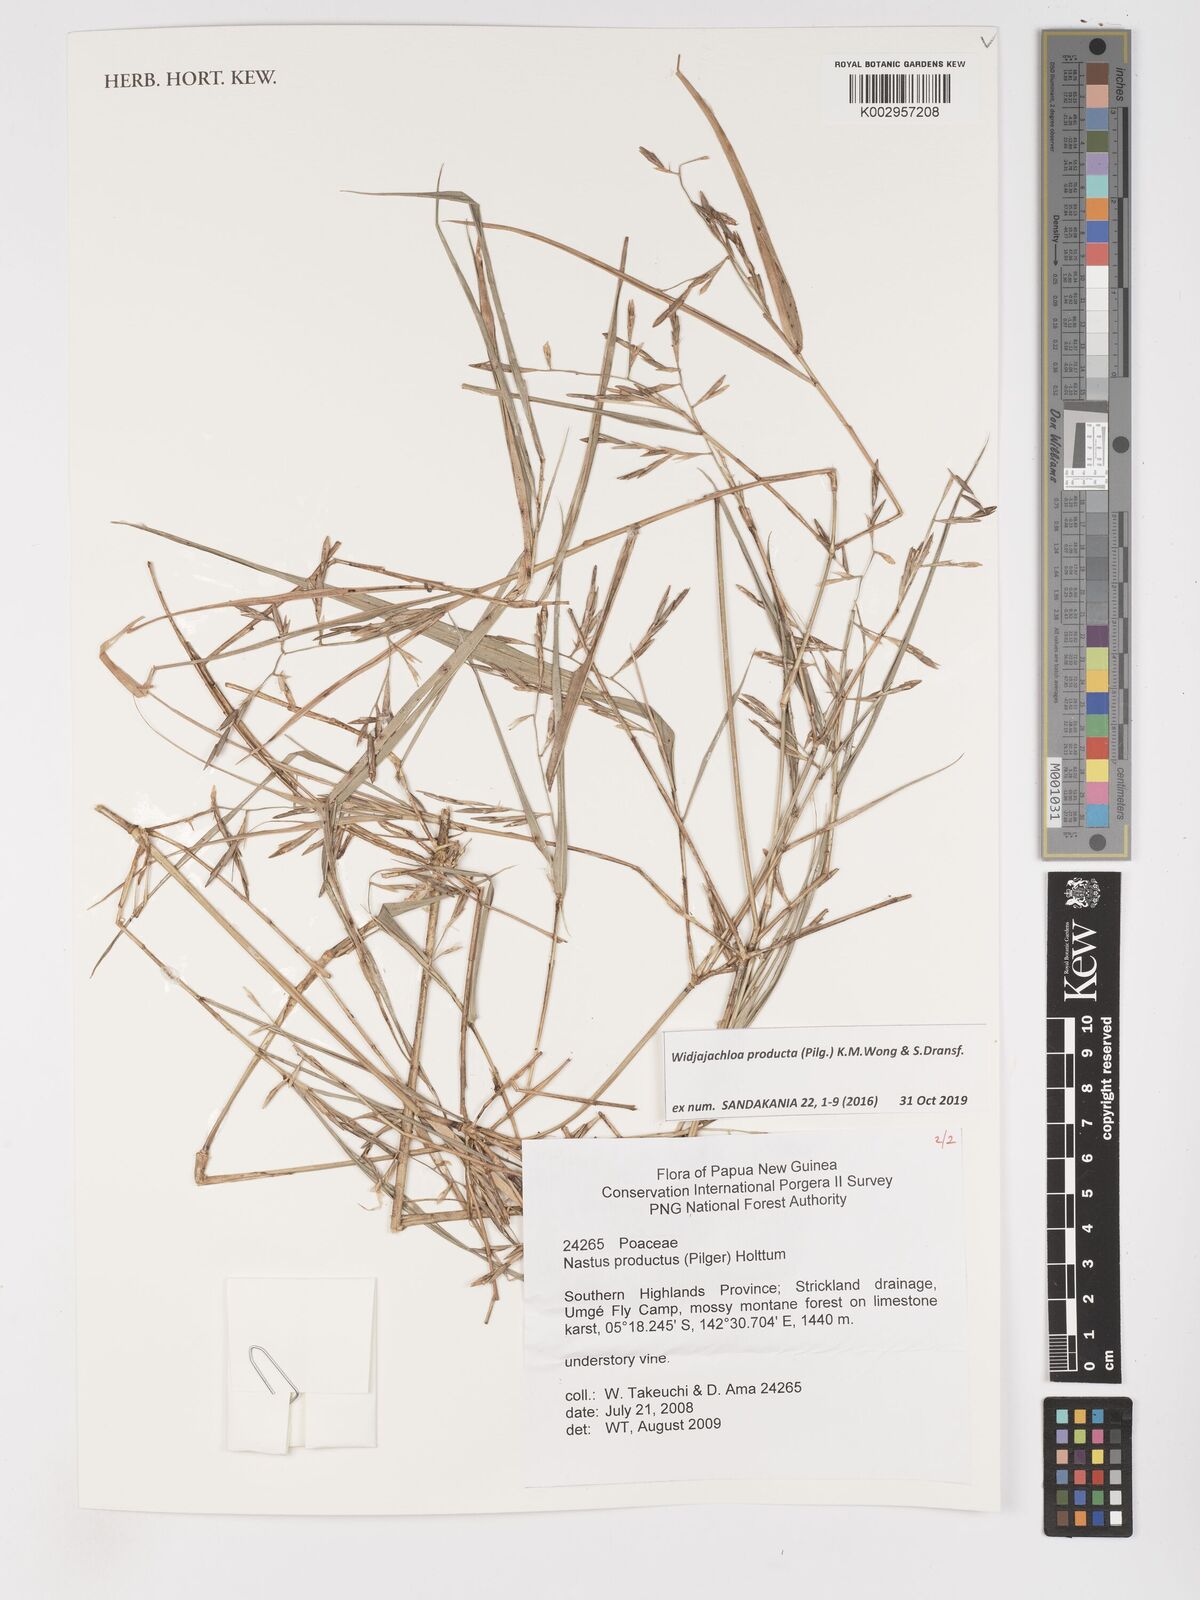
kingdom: Plantae
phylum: Tracheophyta
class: Liliopsida
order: Poales
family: Poaceae
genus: Widjajachloa
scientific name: Widjajachloa producta
